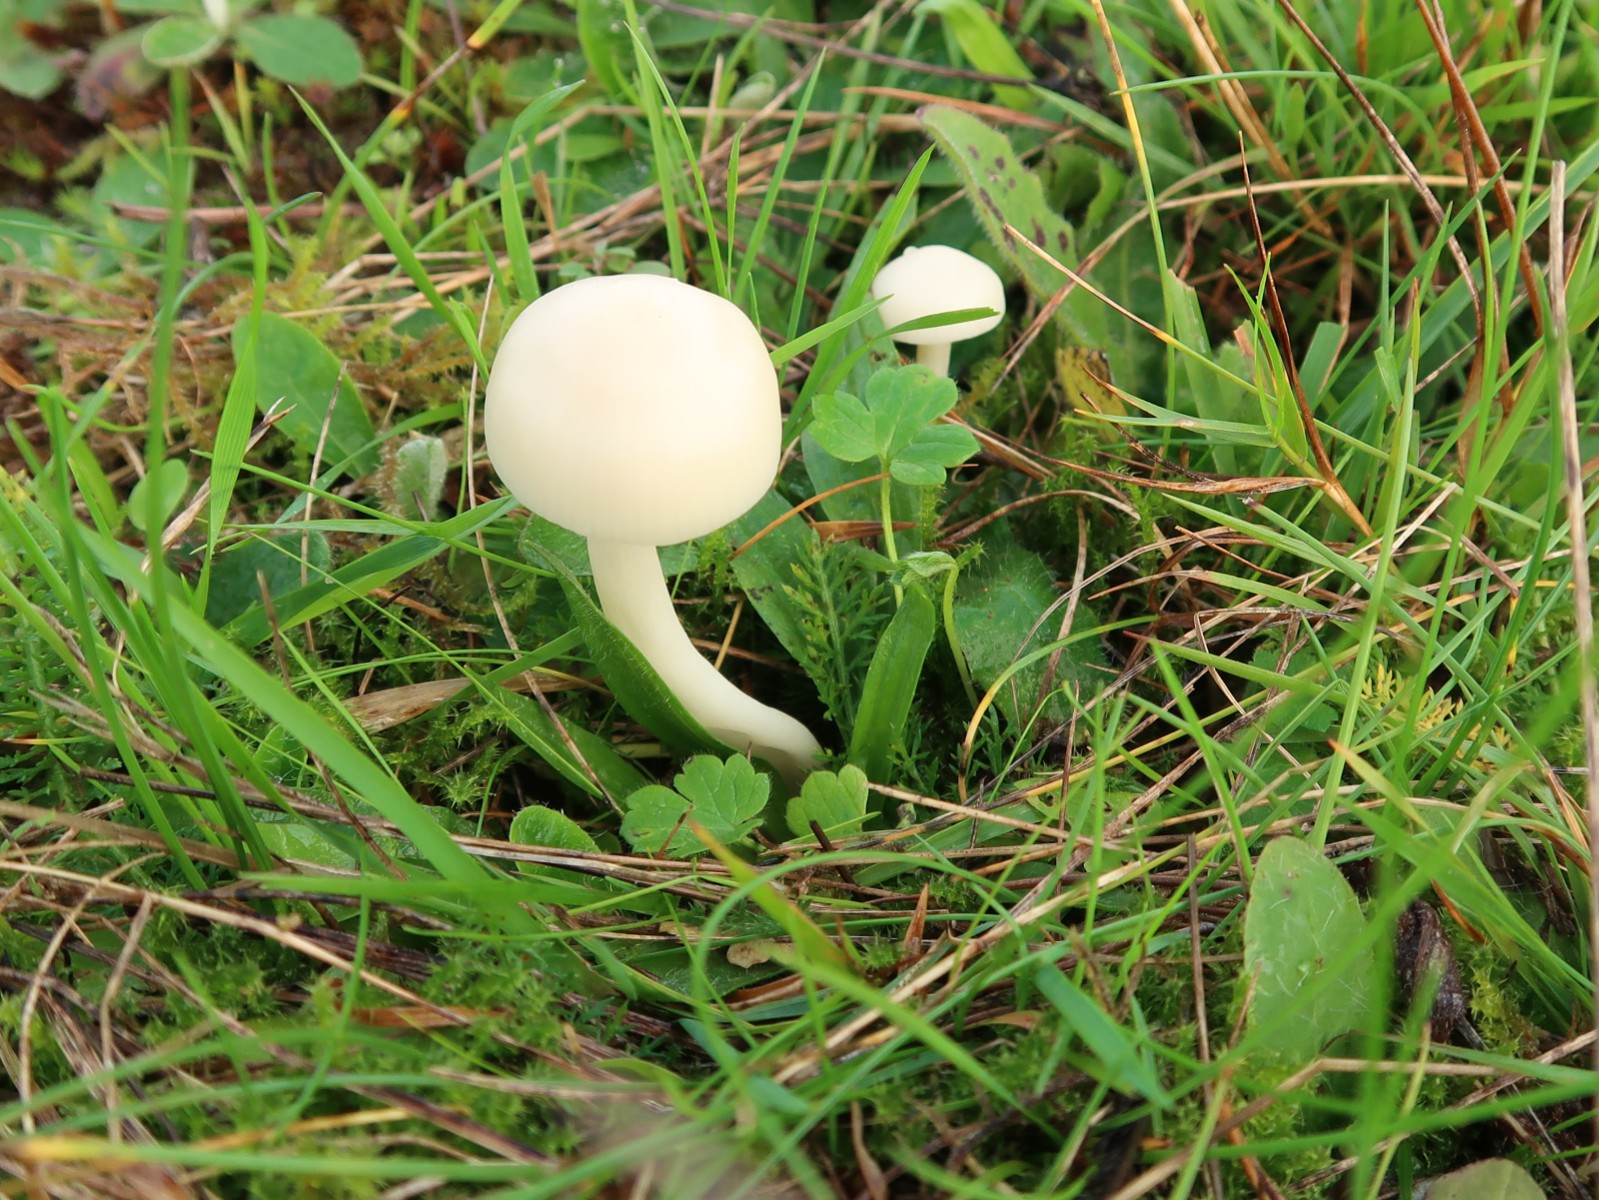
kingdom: Fungi
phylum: Basidiomycota
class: Agaricomycetes
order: Agaricales
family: Hygrophoraceae
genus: Cuphophyllus
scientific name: Cuphophyllus virgineus
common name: snehvid vokshat
